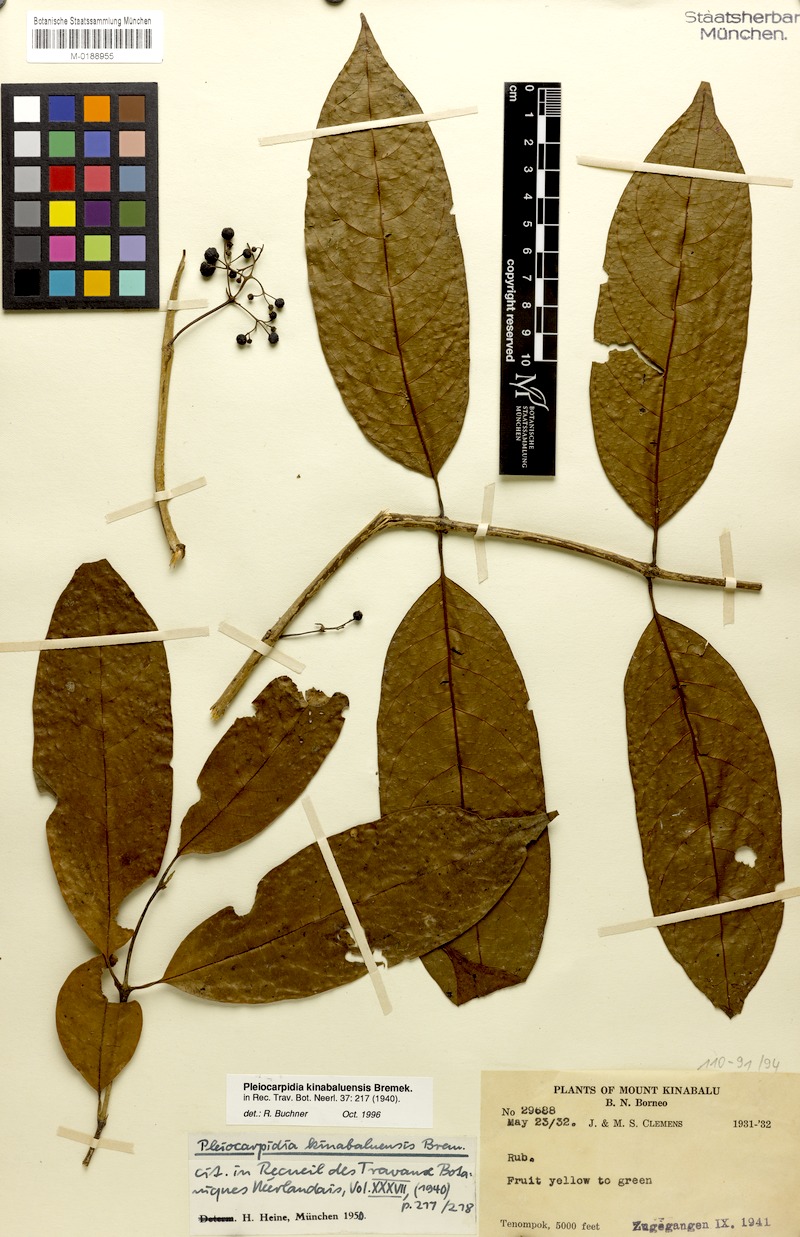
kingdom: Plantae
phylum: Tracheophyta
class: Magnoliopsida
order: Gentianales
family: Rubiaceae
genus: Urophyllum
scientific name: Urophyllum kinabaluense
